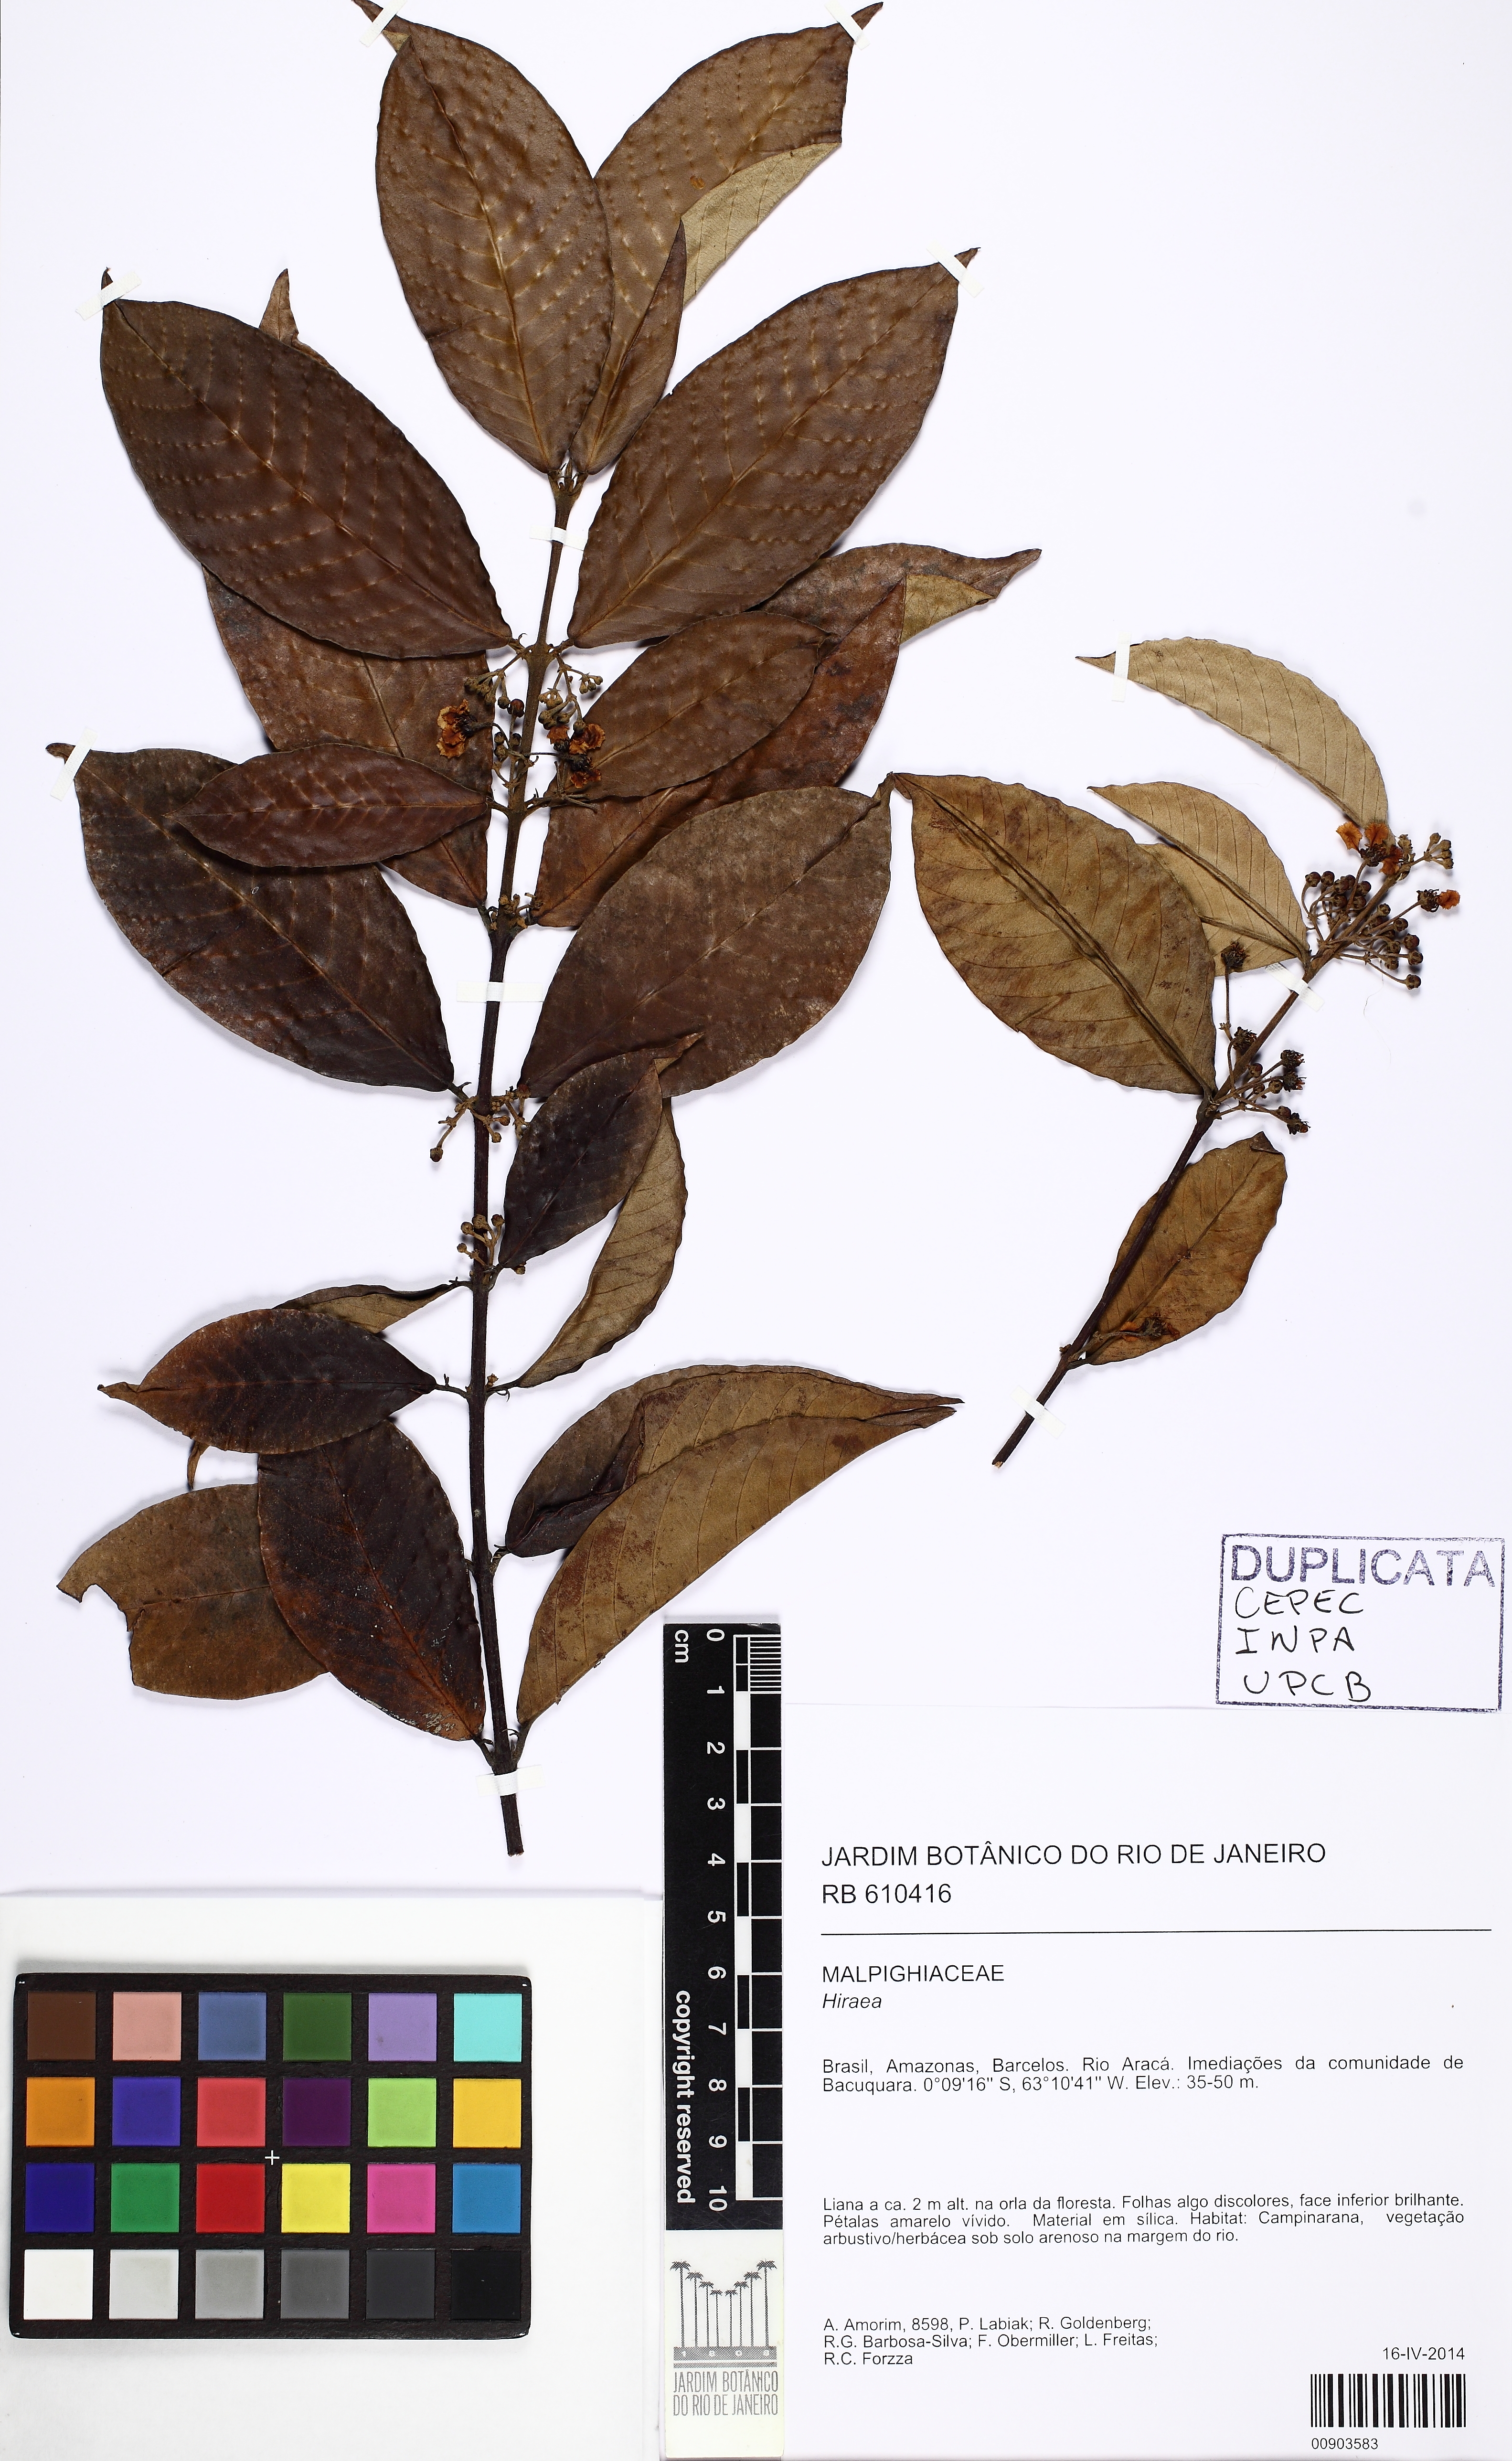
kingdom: Plantae
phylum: Tracheophyta
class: Magnoliopsida
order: Malpighiales
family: Malpighiaceae
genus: Hiraea
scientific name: Hiraea
